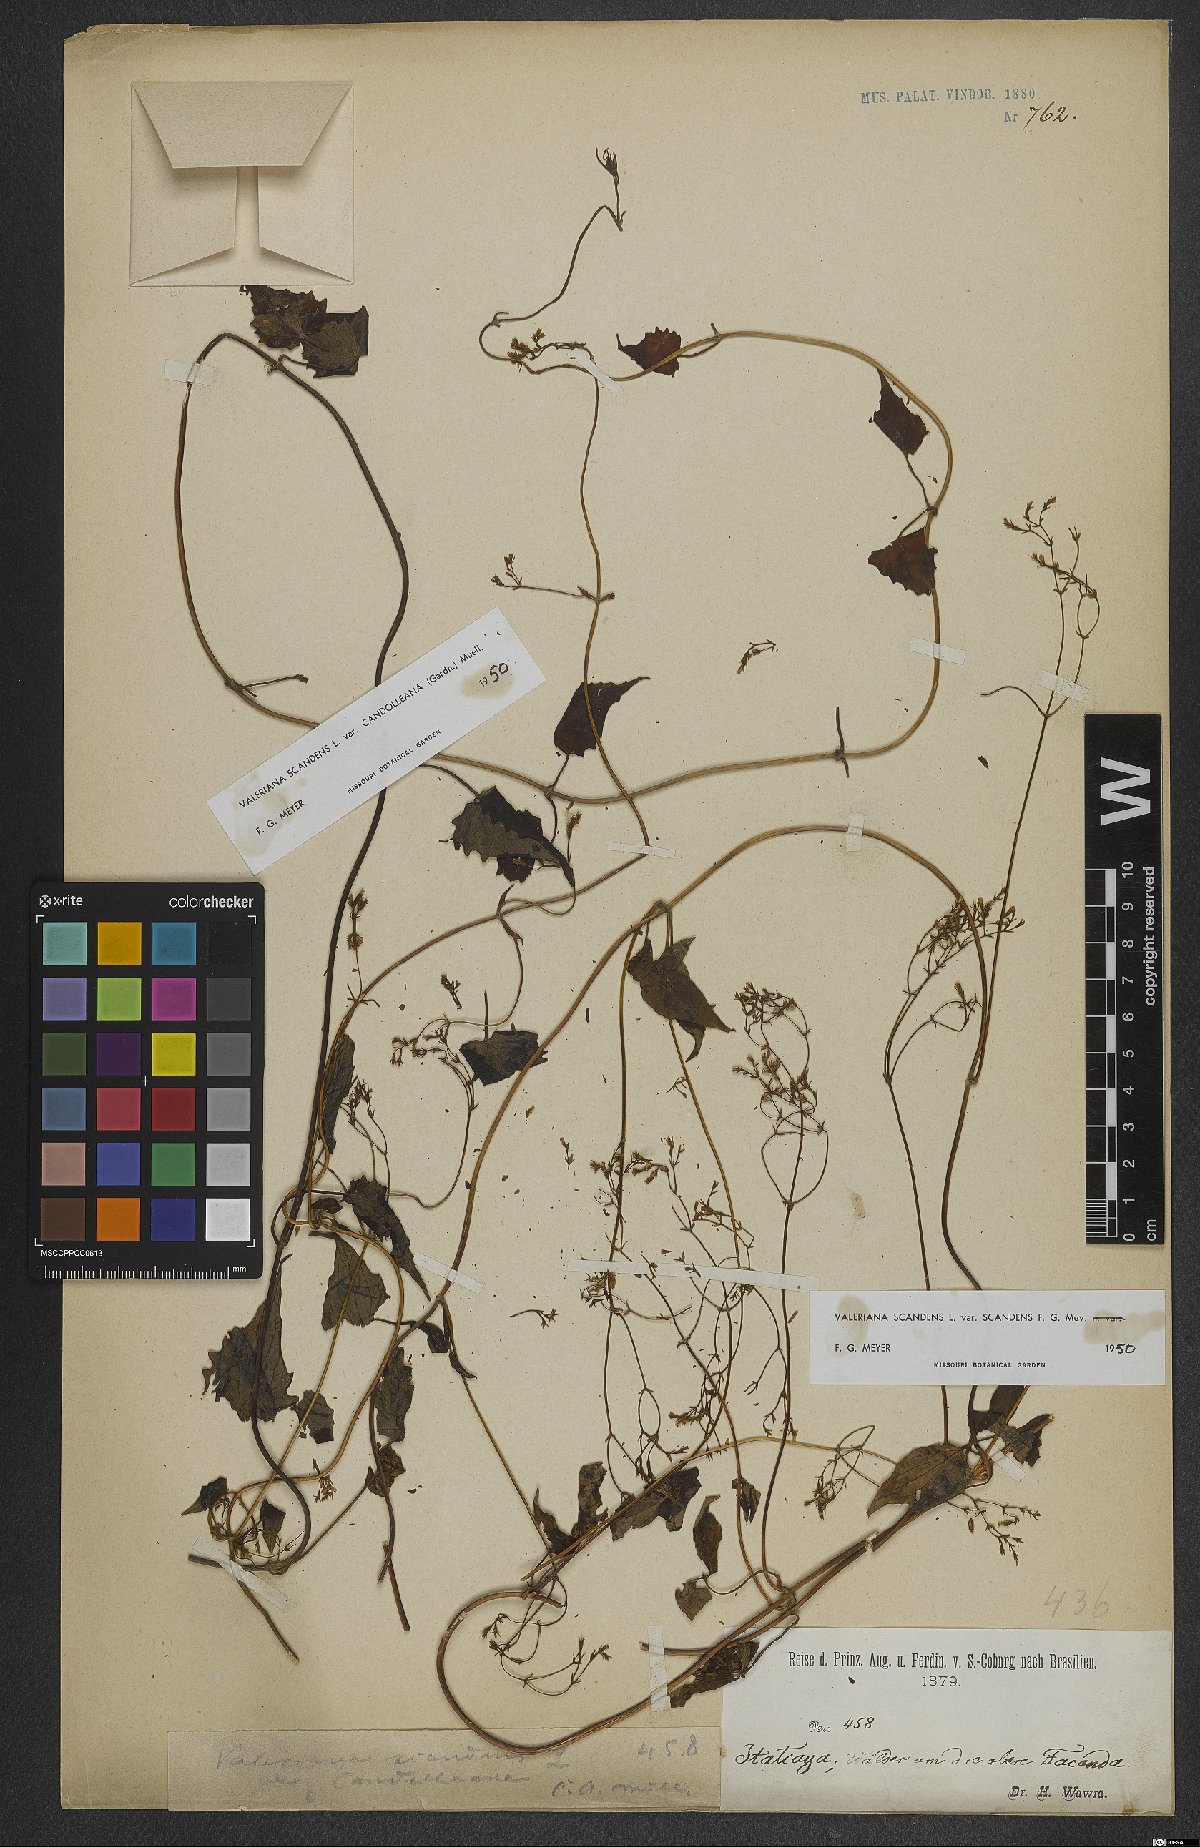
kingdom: Plantae
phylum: Tracheophyta
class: Magnoliopsida
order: Dipsacales
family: Caprifoliaceae
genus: Valeriana
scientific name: Valeriana scandens
